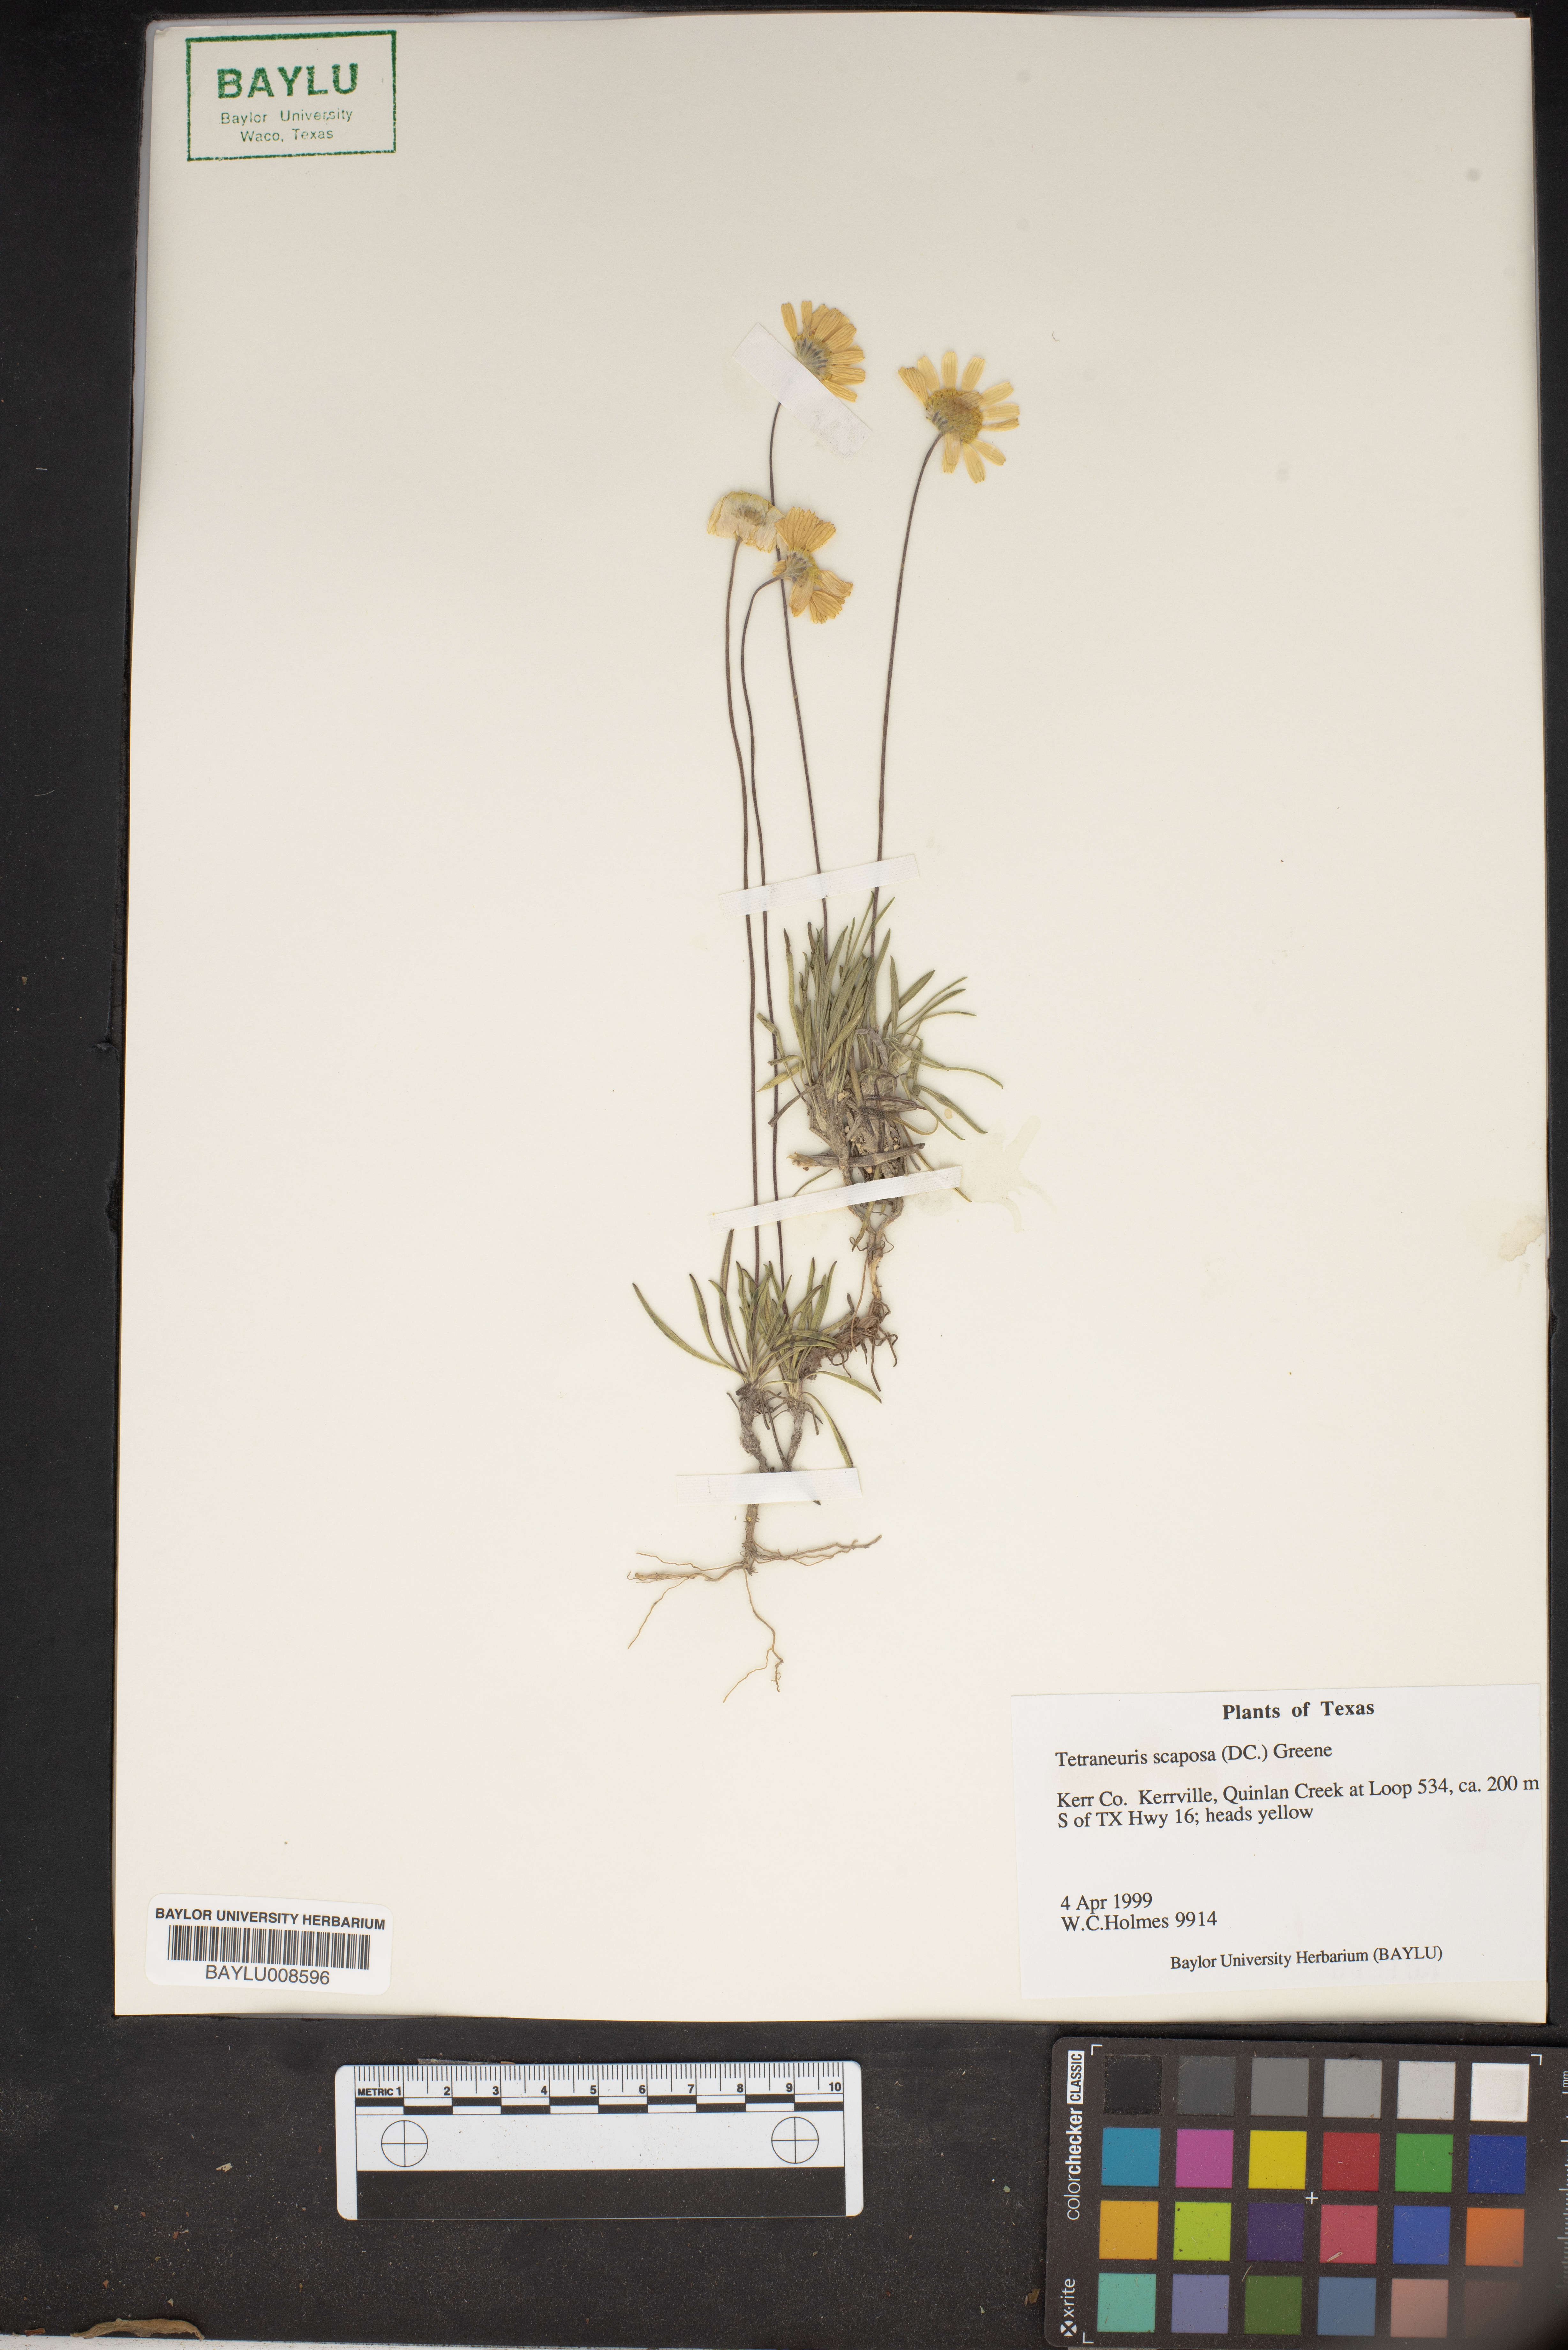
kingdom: Plantae
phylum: Tracheophyta
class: Magnoliopsida
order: Asterales
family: Asteraceae
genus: Tetraneuris
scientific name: Tetraneuris scaposa
